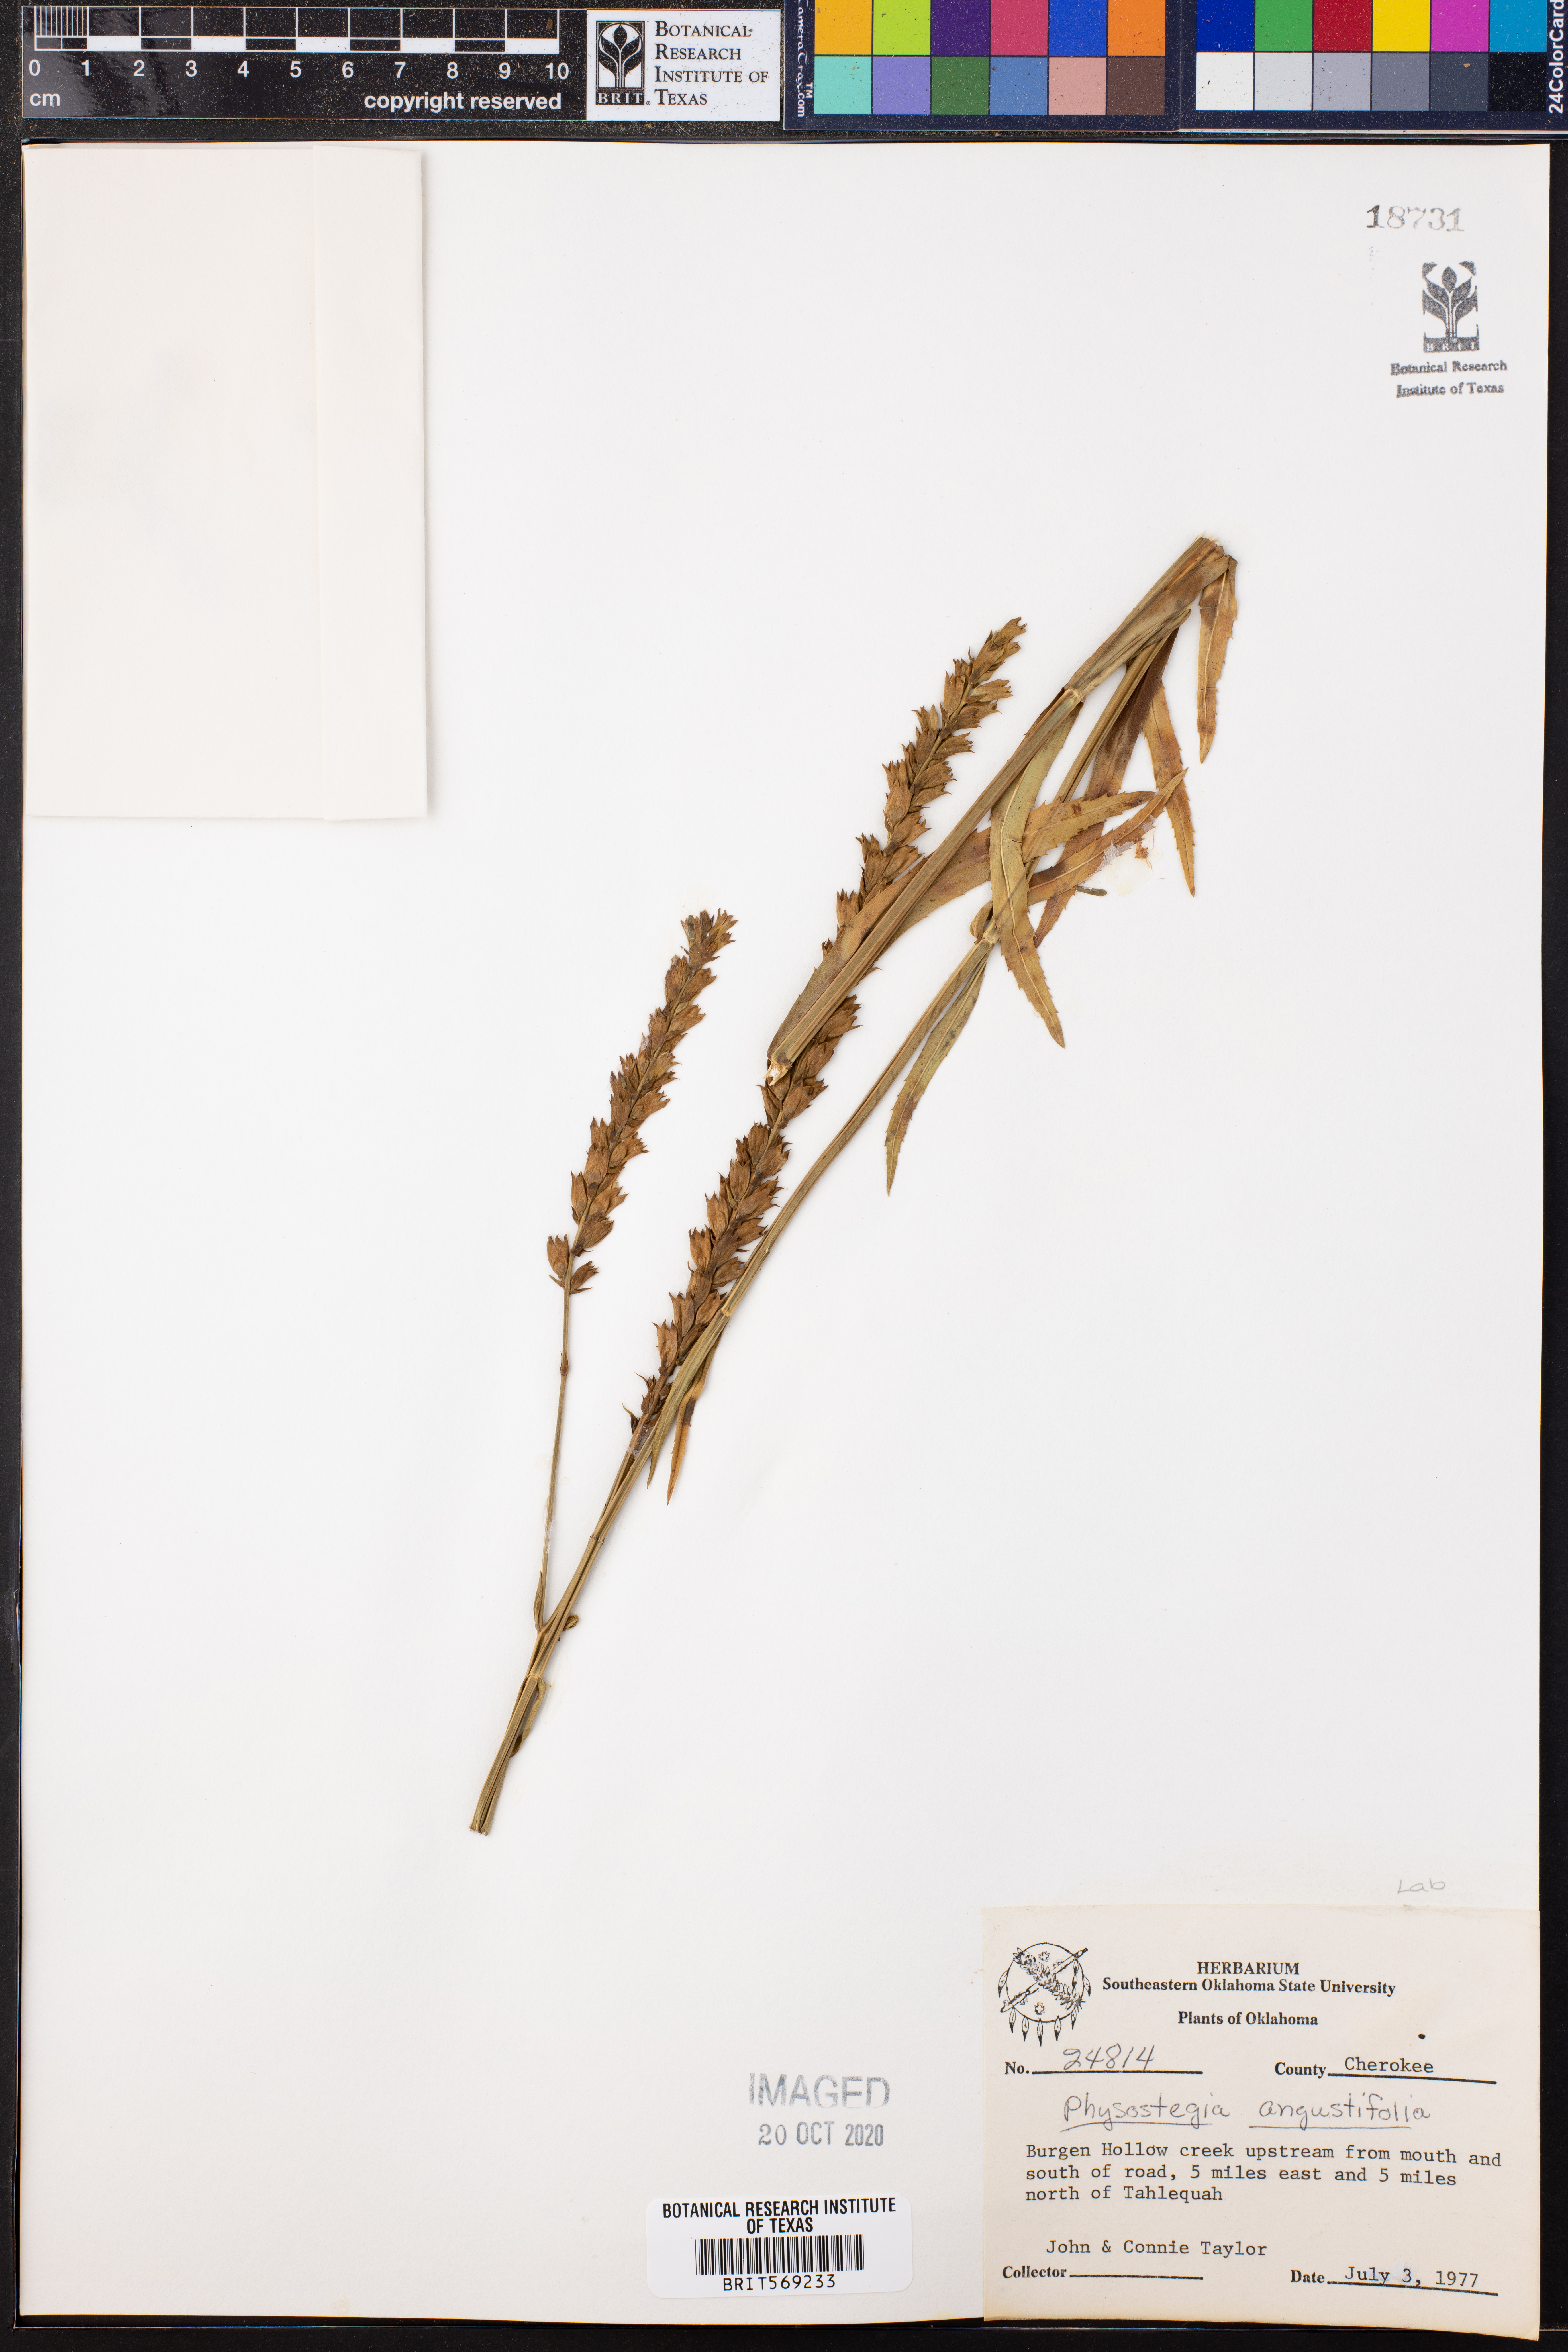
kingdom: Plantae
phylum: Tracheophyta
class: Magnoliopsida
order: Lamiales
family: Lamiaceae
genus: Physostegia
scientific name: Physostegia angustifolia
